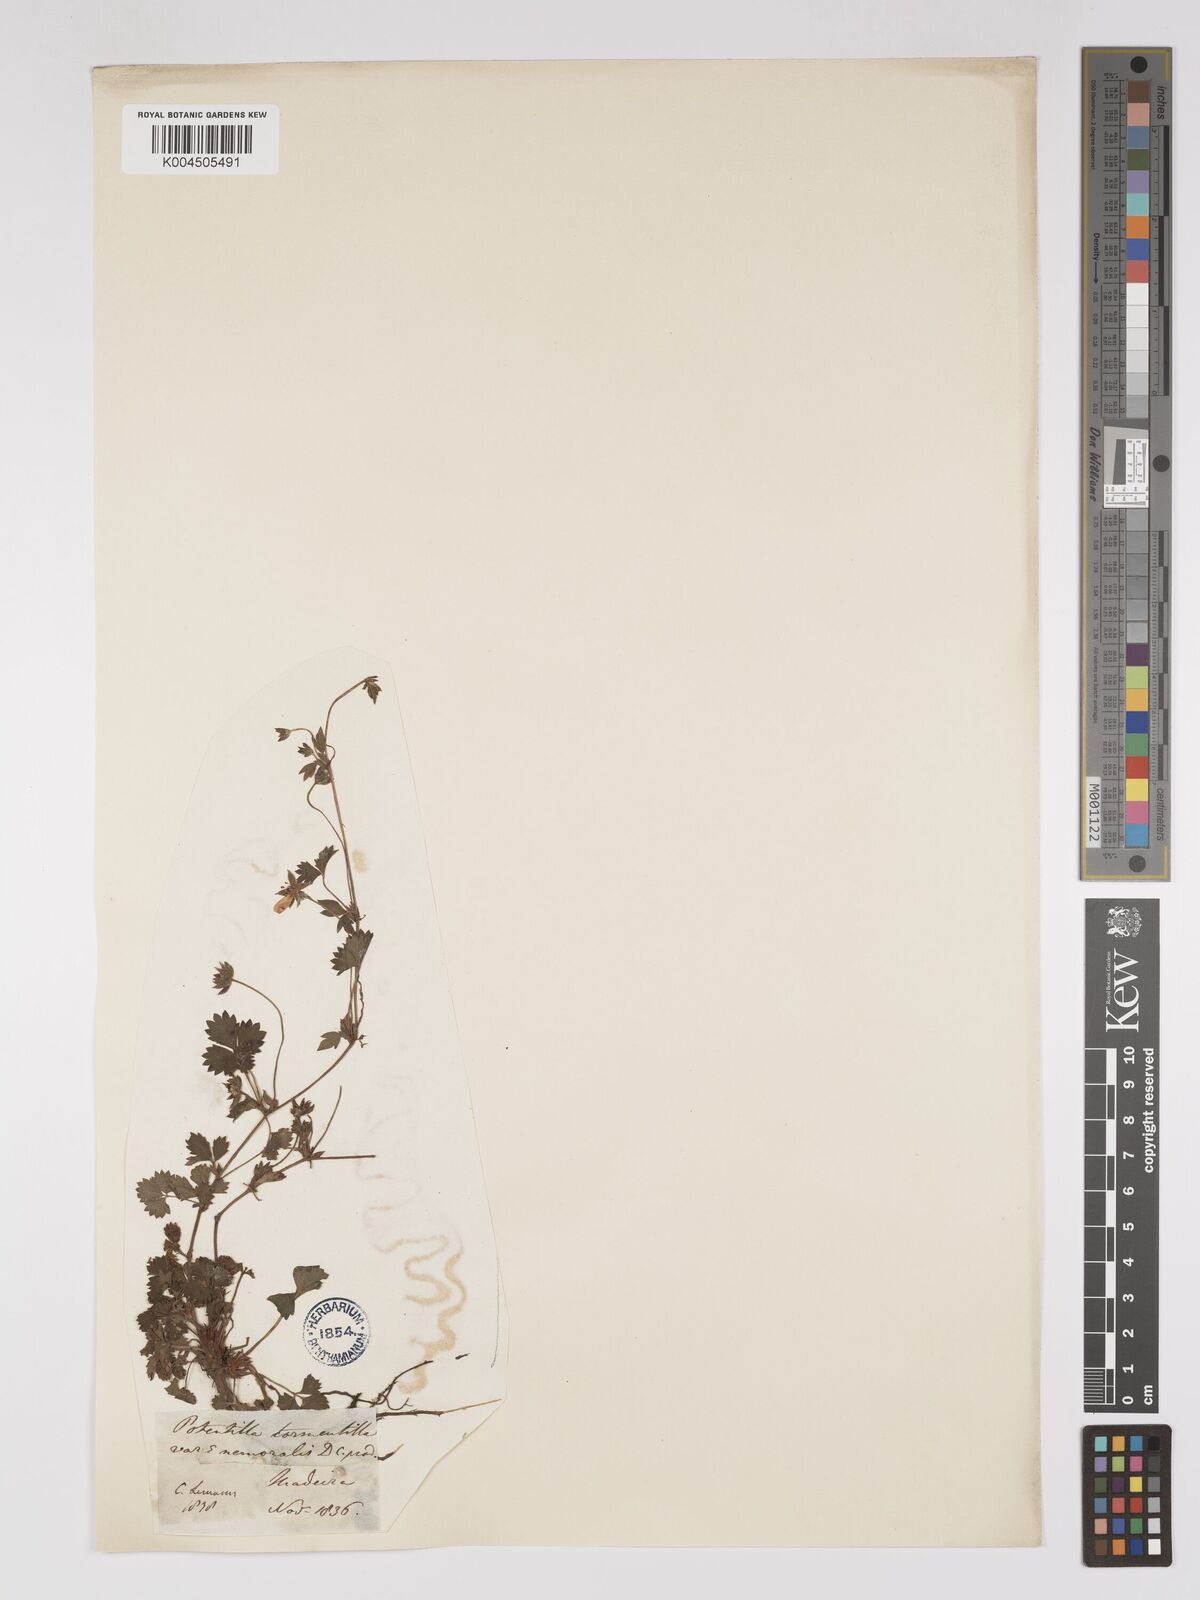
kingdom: Plantae
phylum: Tracheophyta
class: Magnoliopsida
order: Rosales
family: Rosaceae
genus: Potentilla
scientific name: Potentilla reptans
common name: Creeping cinquefoil
